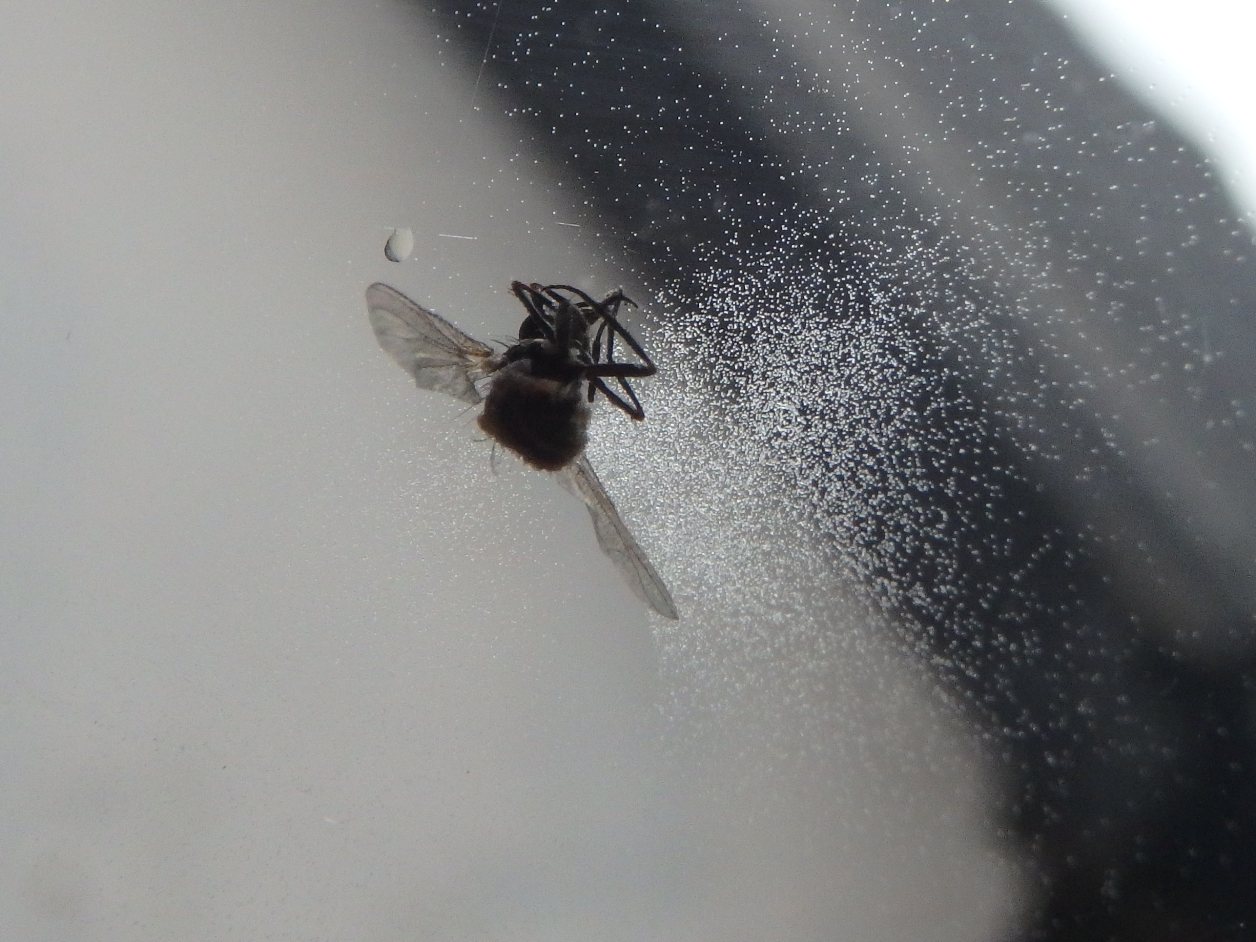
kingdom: Fungi
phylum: Entomophthoromycota
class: Entomophthoromycetes
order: Entomophthorales
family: Entomophthoraceae
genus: Entomophthora
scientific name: Entomophthora muscae
